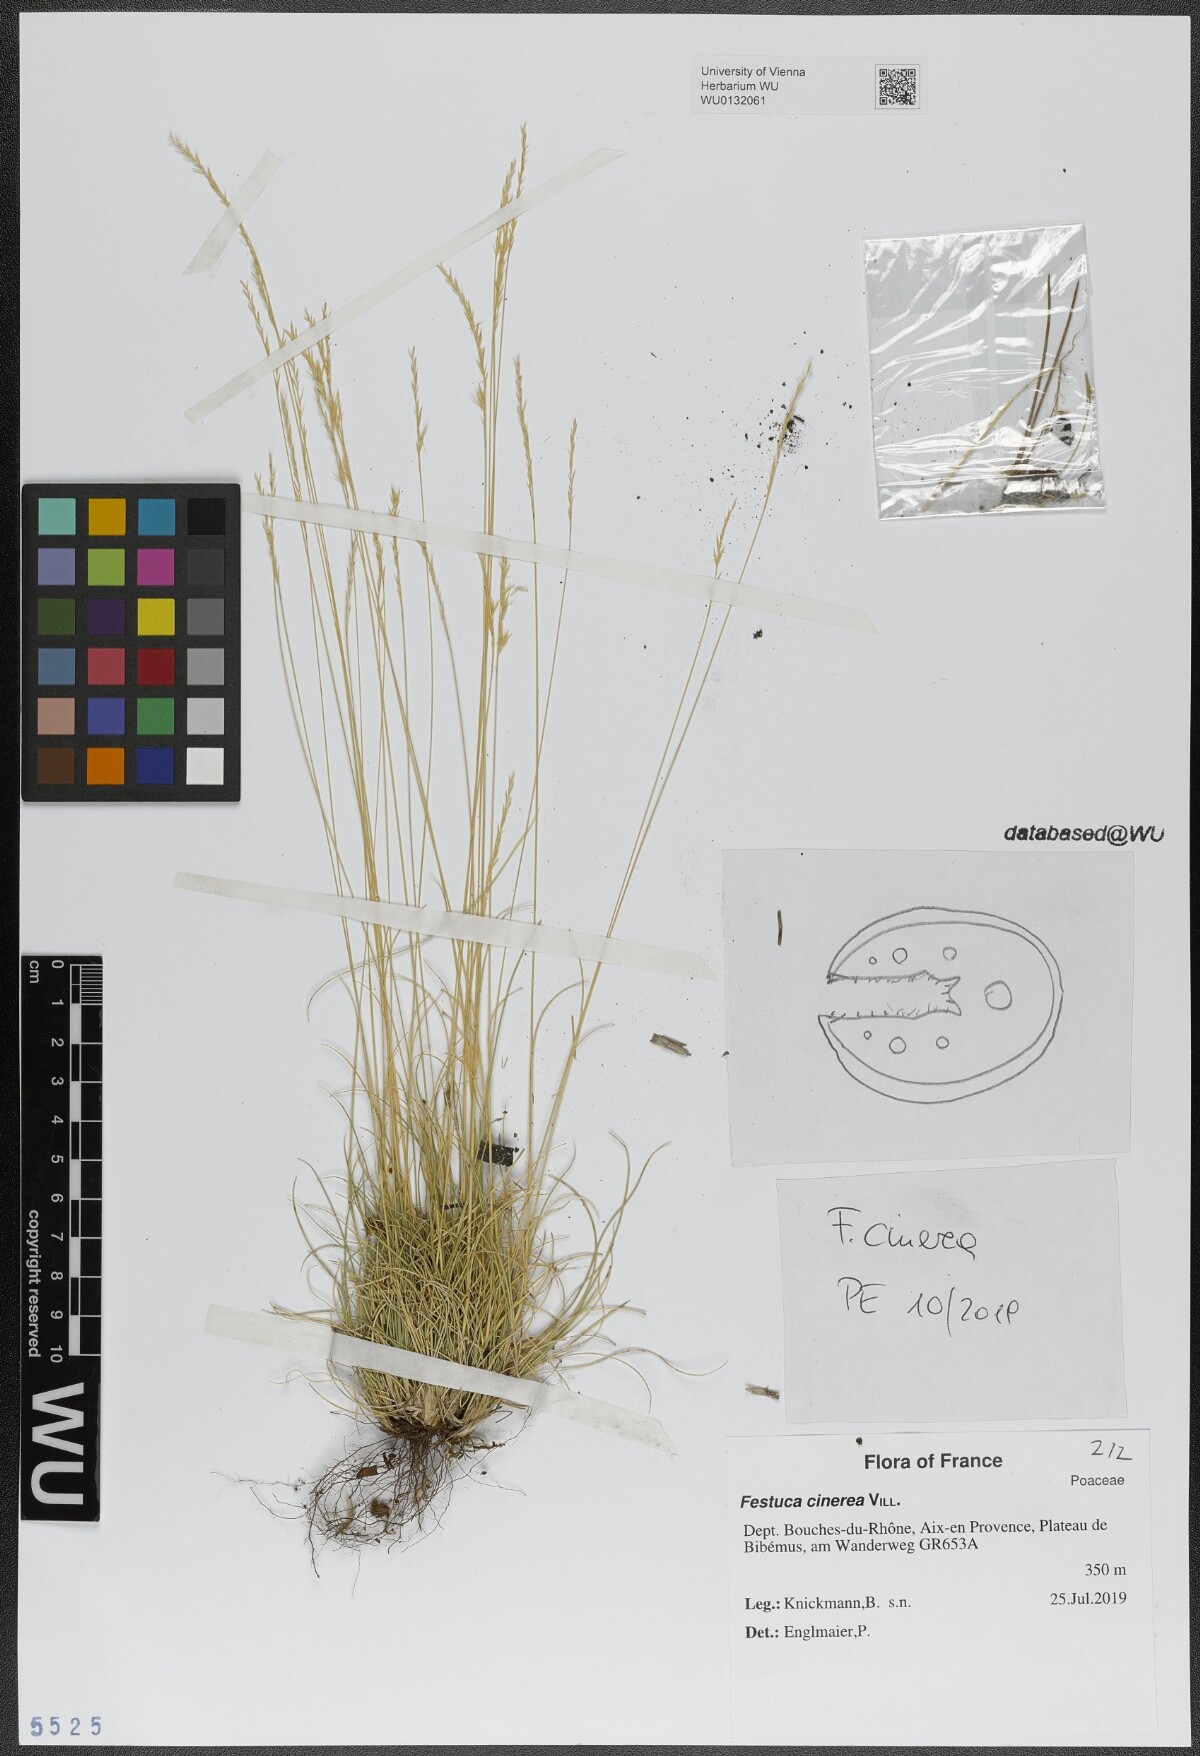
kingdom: Plantae
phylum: Tracheophyta
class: Liliopsida
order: Poales
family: Poaceae
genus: Festuca
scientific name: Festuca cinerea
